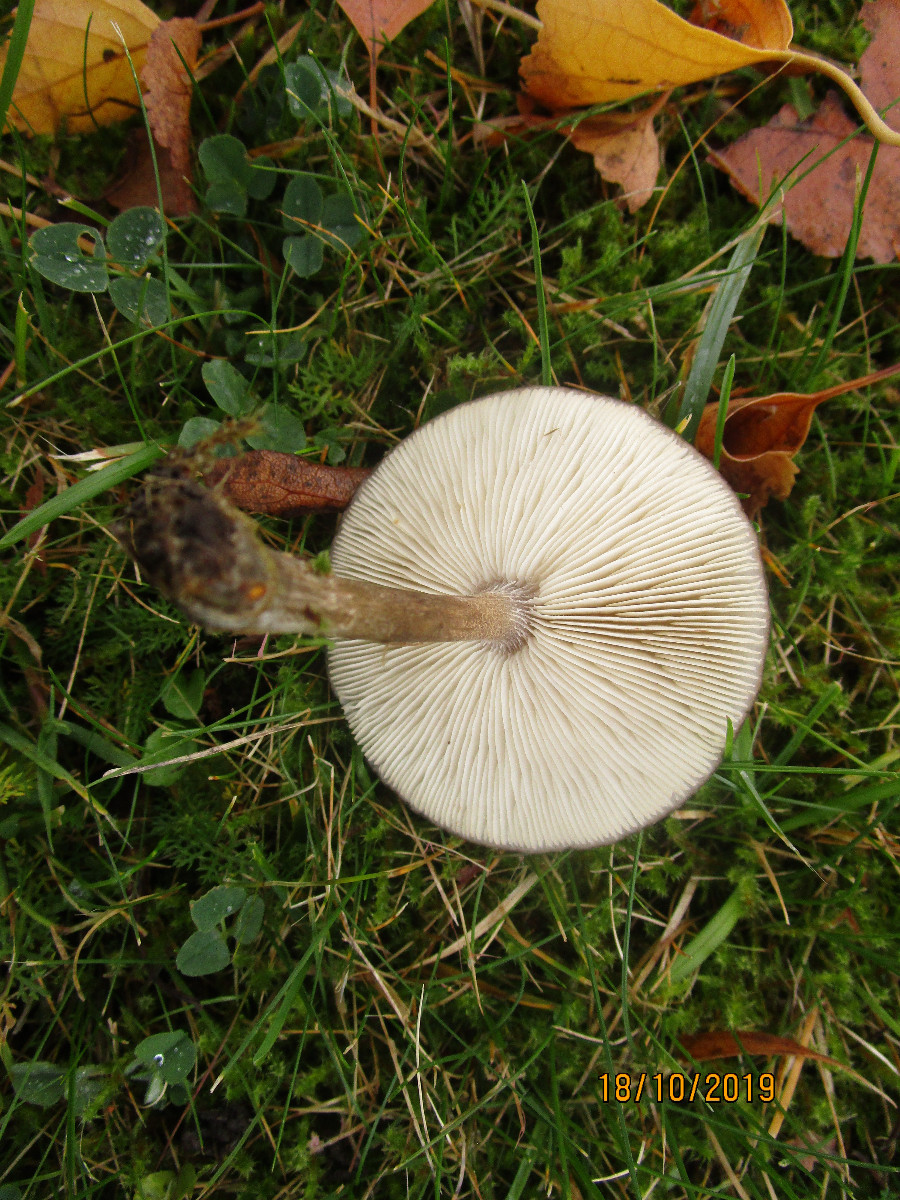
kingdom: Fungi
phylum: Basidiomycota
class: Agaricomycetes
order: Agaricales
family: Tricholomataceae
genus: Melanoleuca
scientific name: Melanoleuca
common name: munkehat
